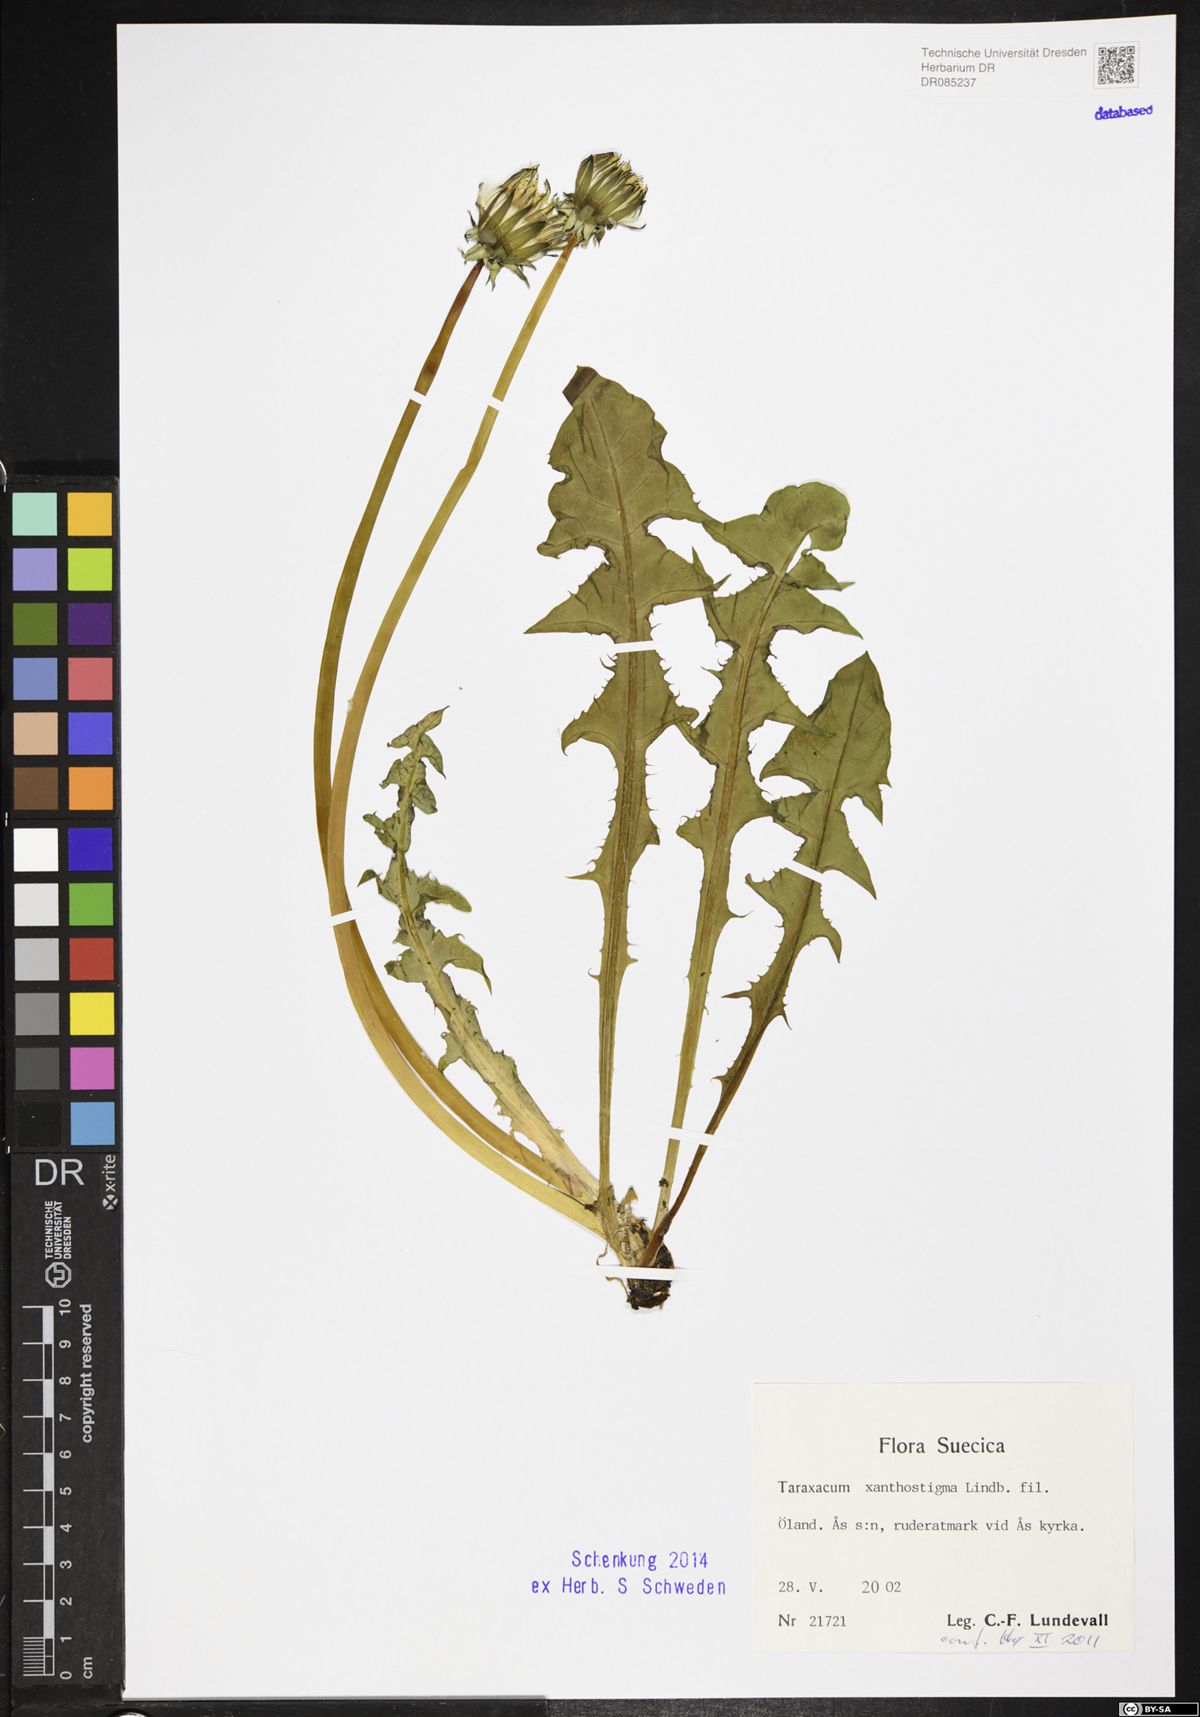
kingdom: Plantae
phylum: Tracheophyta
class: Magnoliopsida
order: Asterales
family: Asteraceae
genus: Taraxacum
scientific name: Taraxacum xanthostigma
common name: Ochre-styled dandelion
